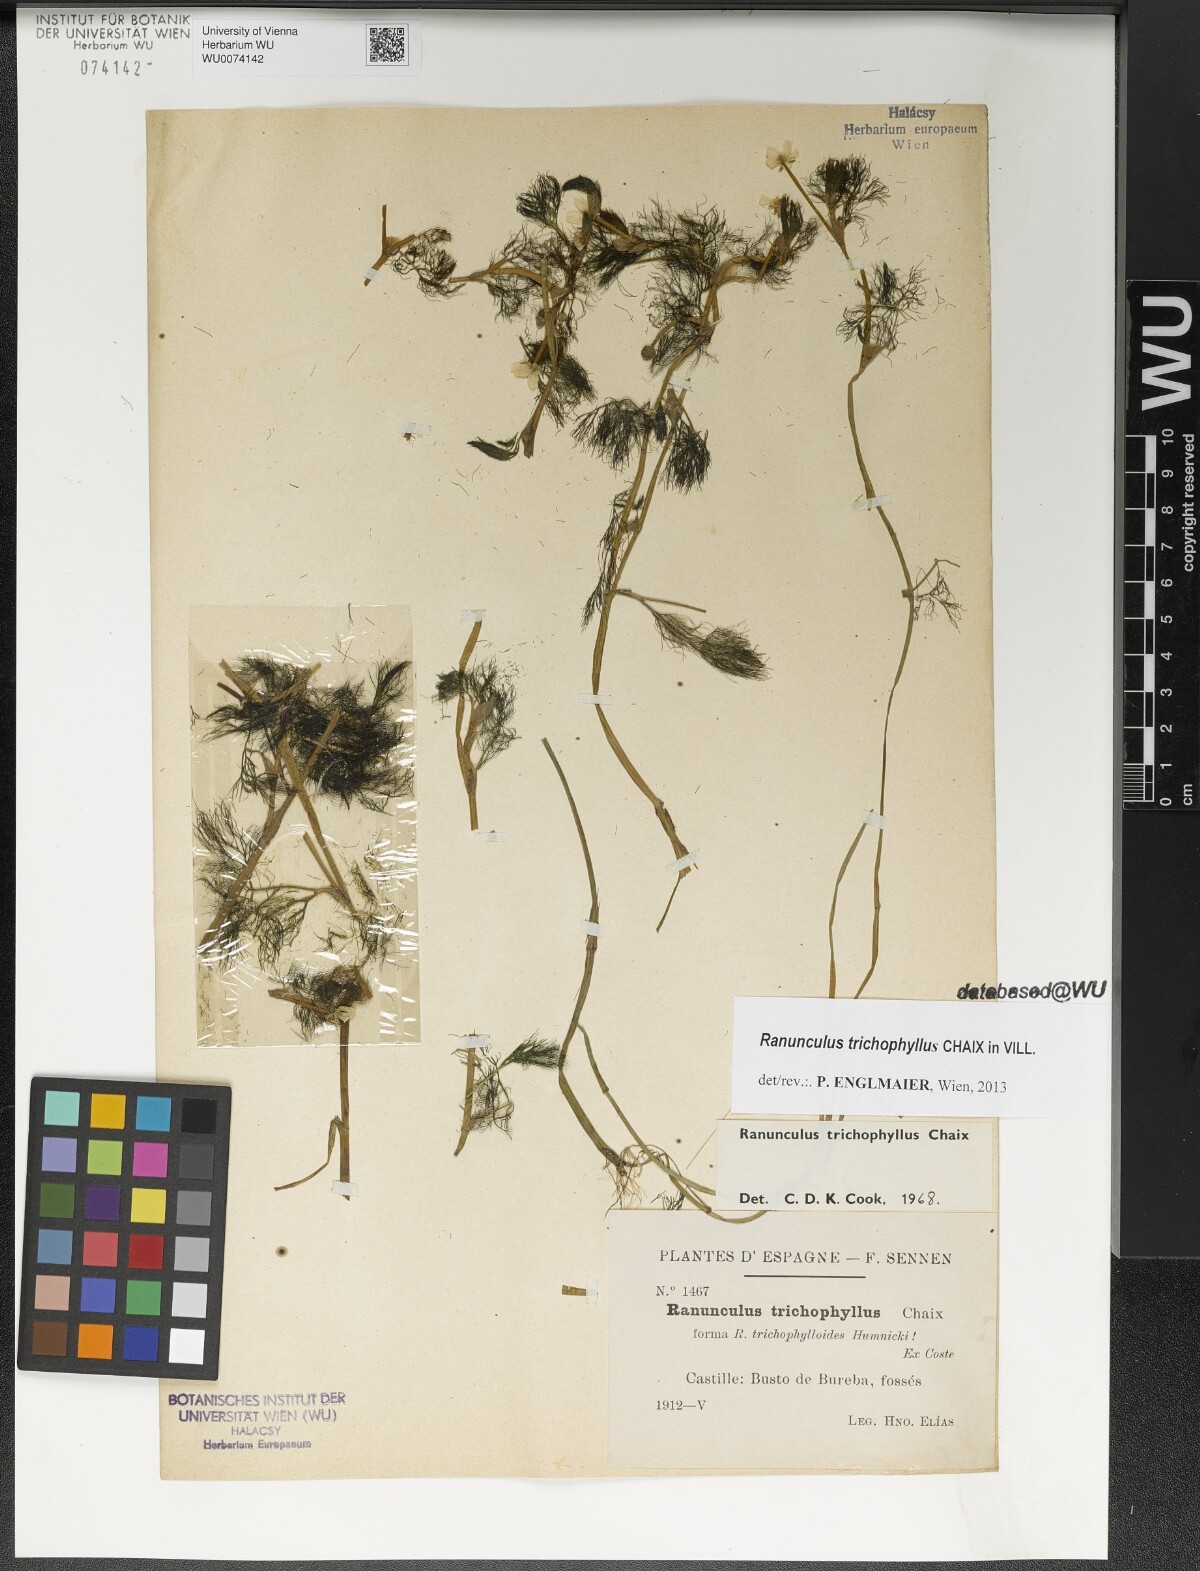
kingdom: Plantae
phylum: Tracheophyta
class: Magnoliopsida
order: Ranunculales
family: Ranunculaceae
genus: Ranunculus
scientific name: Ranunculus trichophyllus
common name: Thread-leaved water-crowfoot
